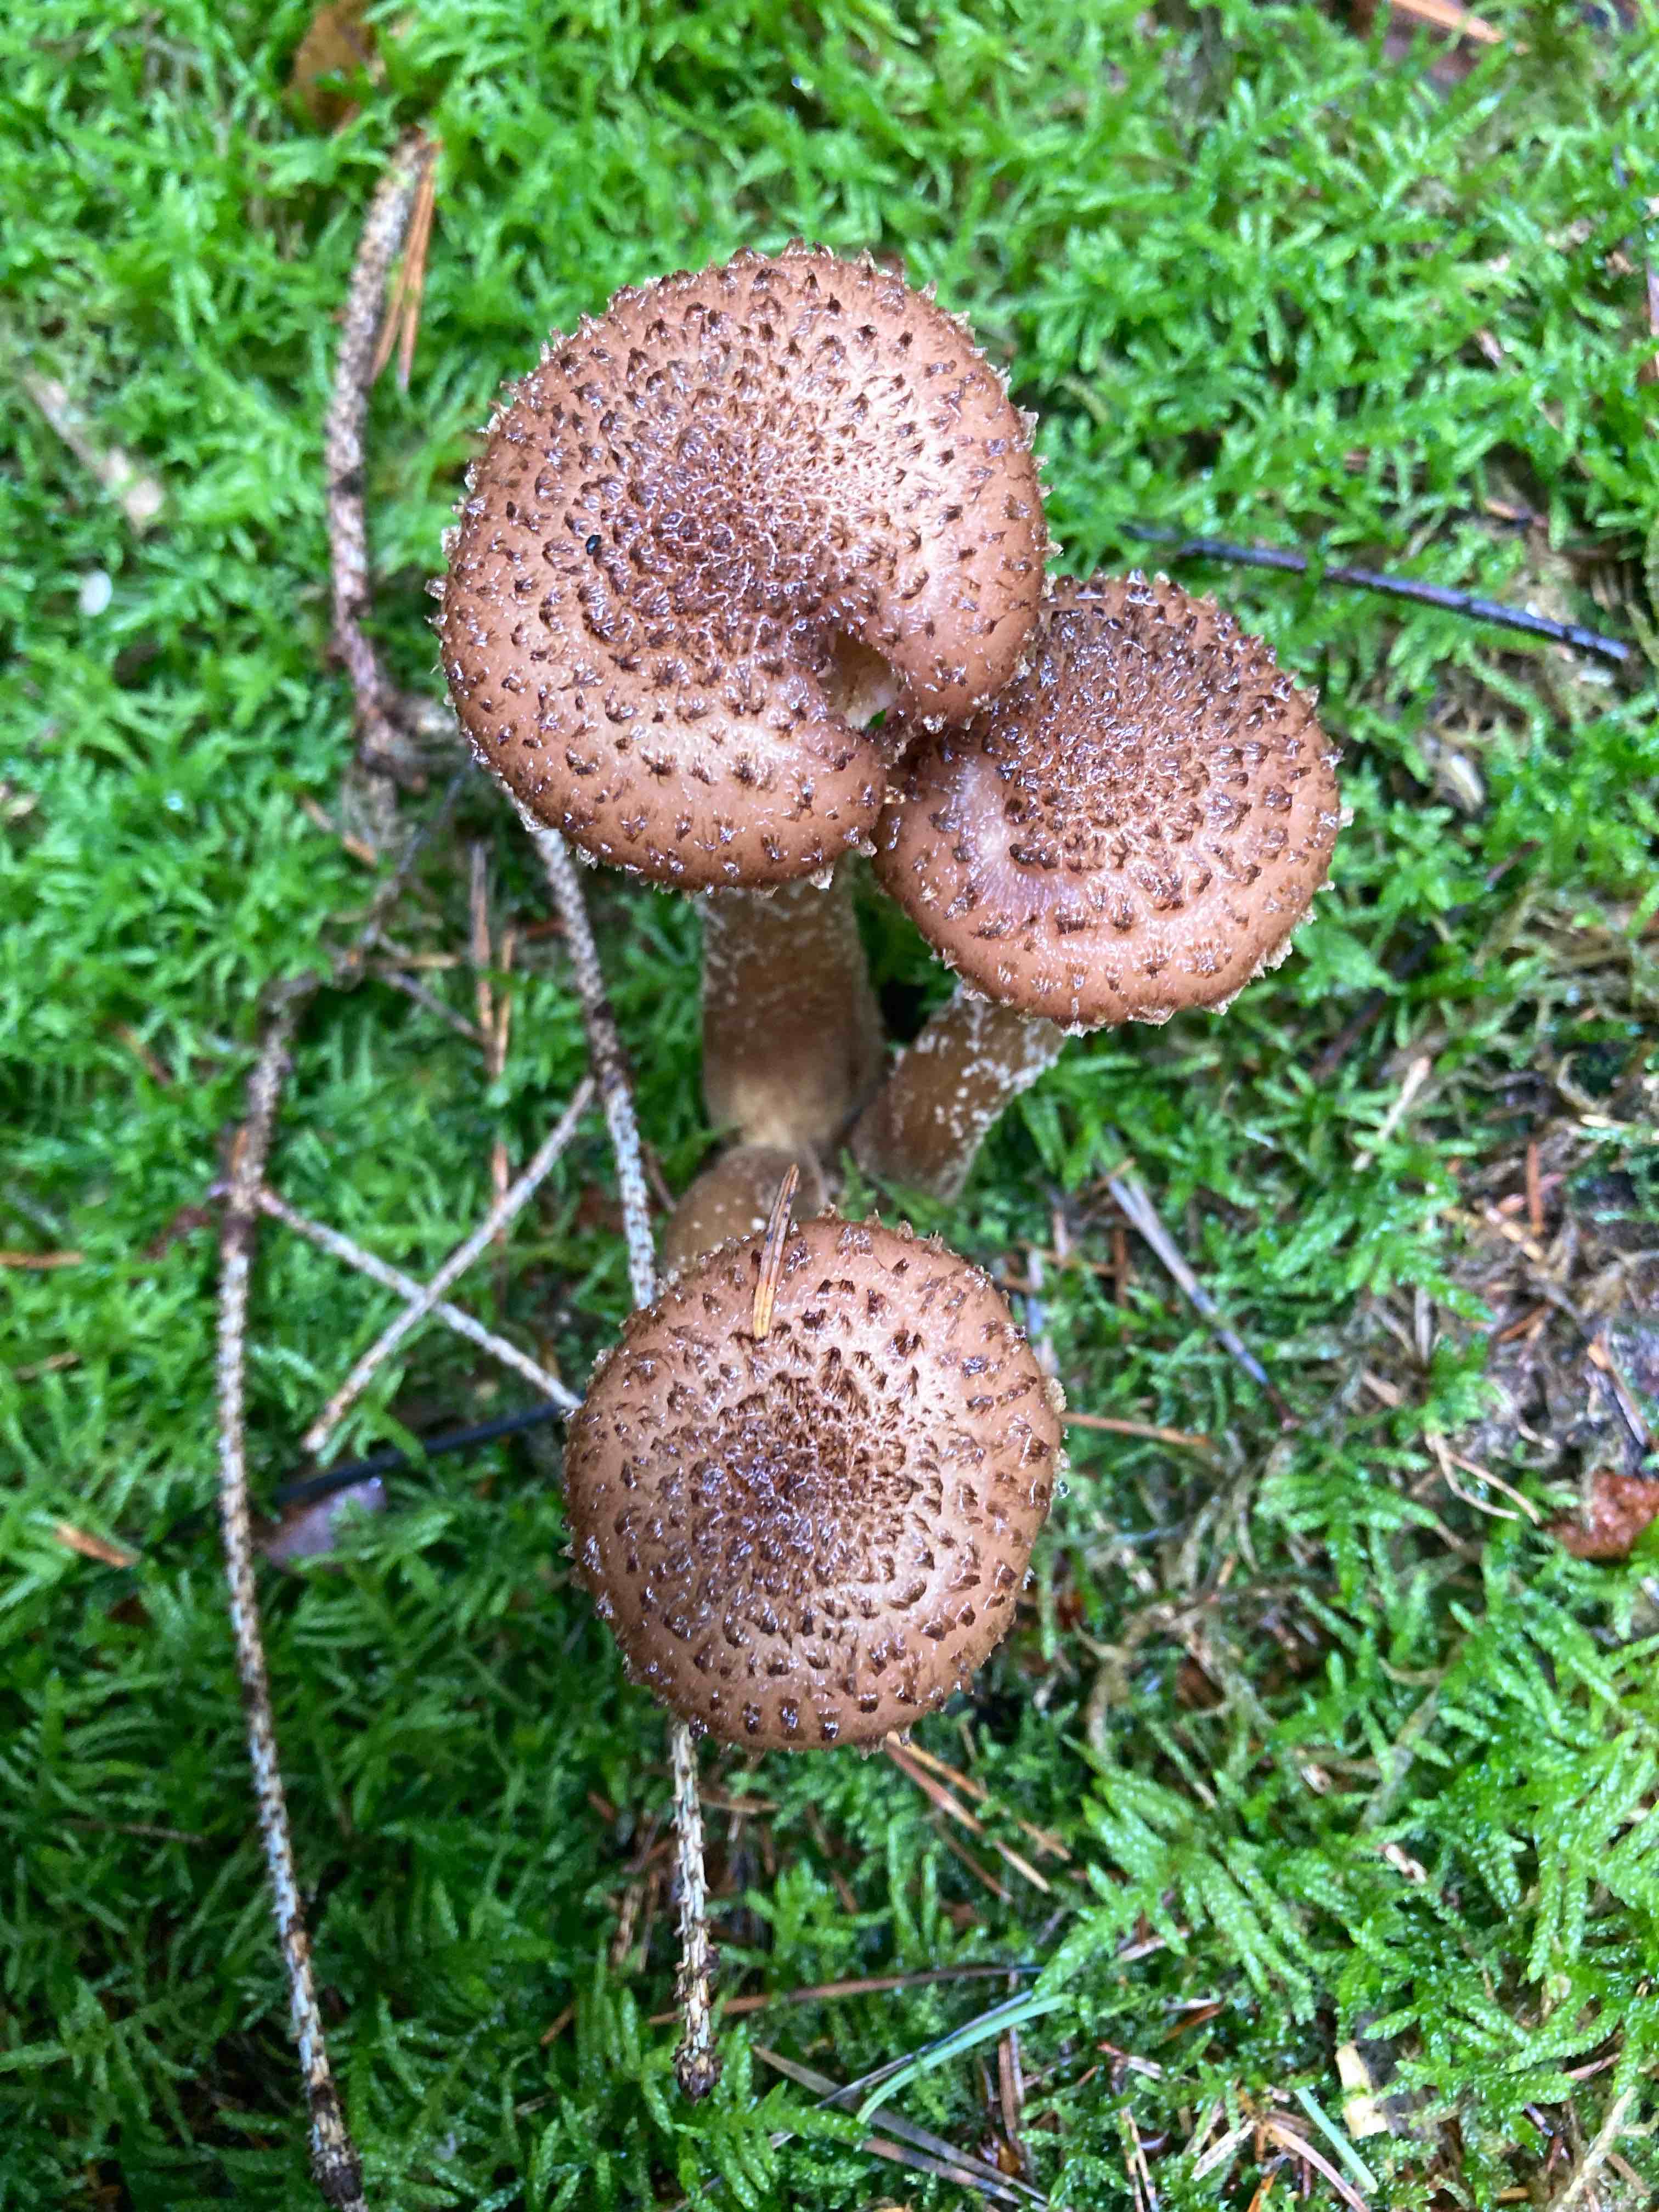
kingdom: Fungi
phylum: Basidiomycota
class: Agaricomycetes
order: Agaricales
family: Physalacriaceae
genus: Armillaria
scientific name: Armillaria ostoyae
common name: mørk honningsvamp
